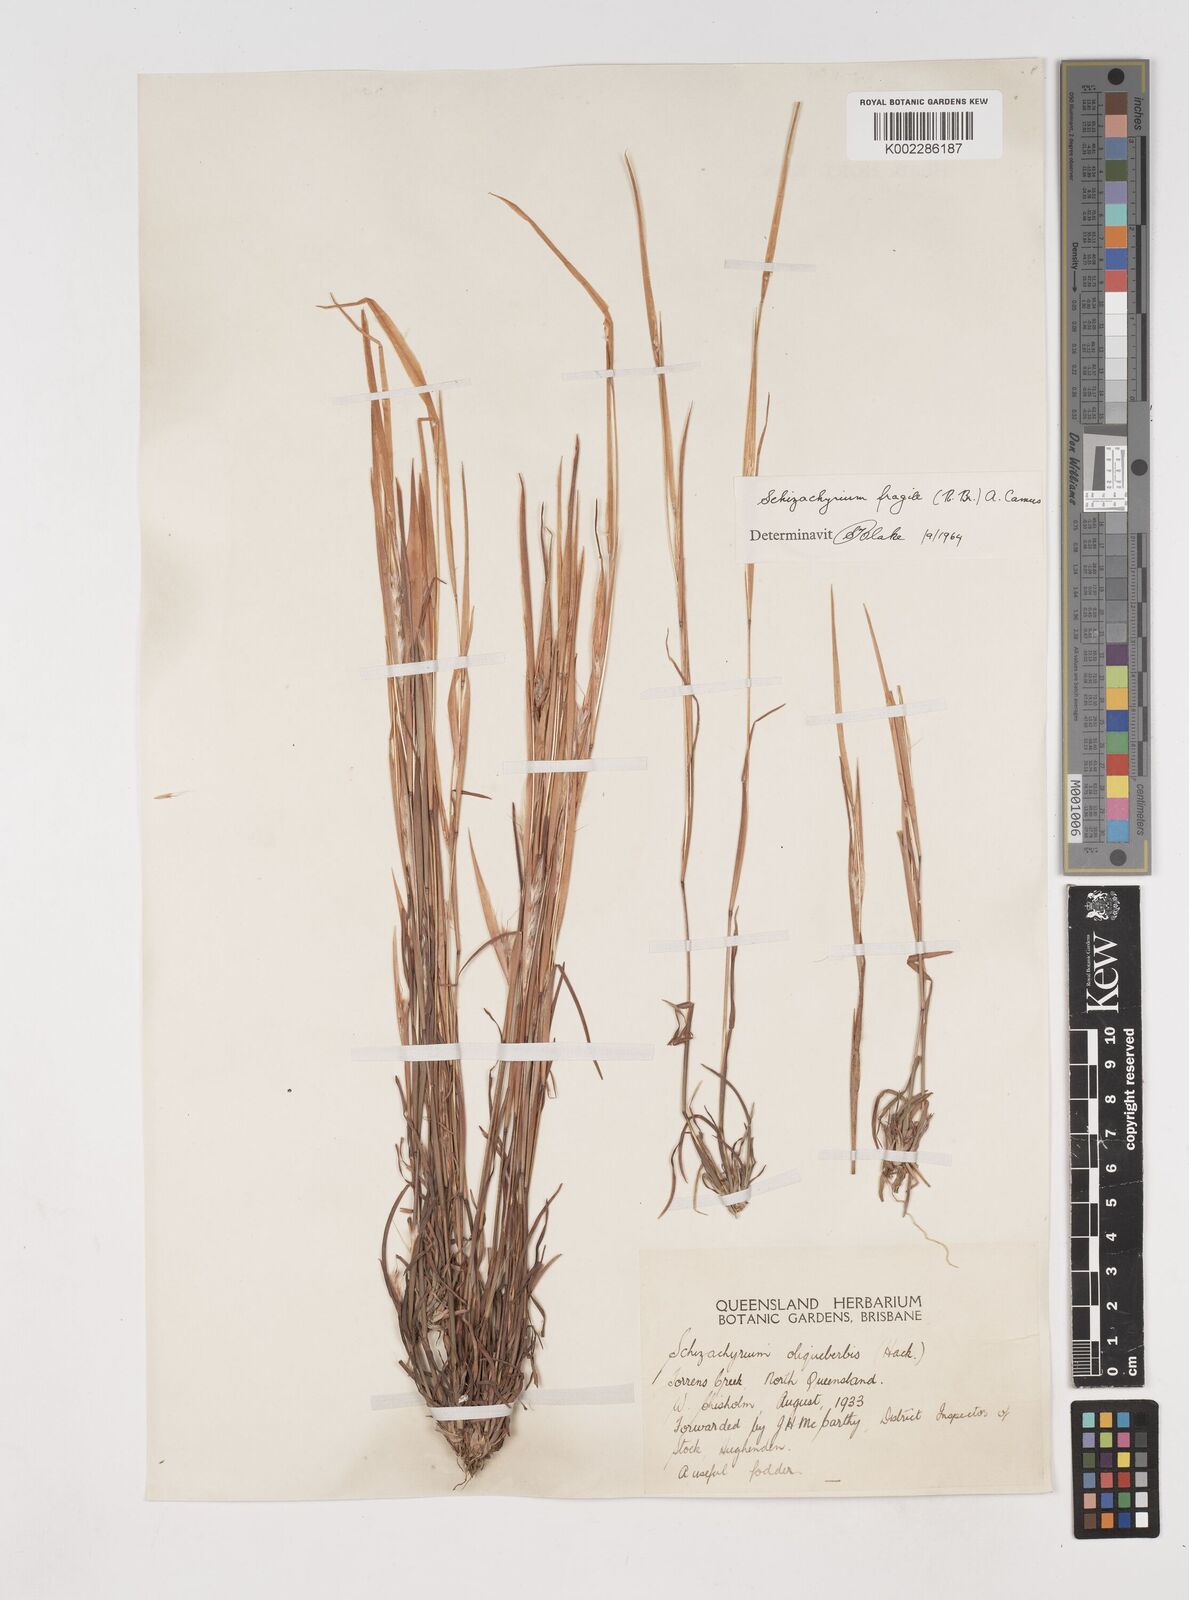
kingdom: Plantae
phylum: Tracheophyta
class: Liliopsida
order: Poales
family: Poaceae
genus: Schizachyrium
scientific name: Schizachyrium fragile
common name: Red spathe grass
